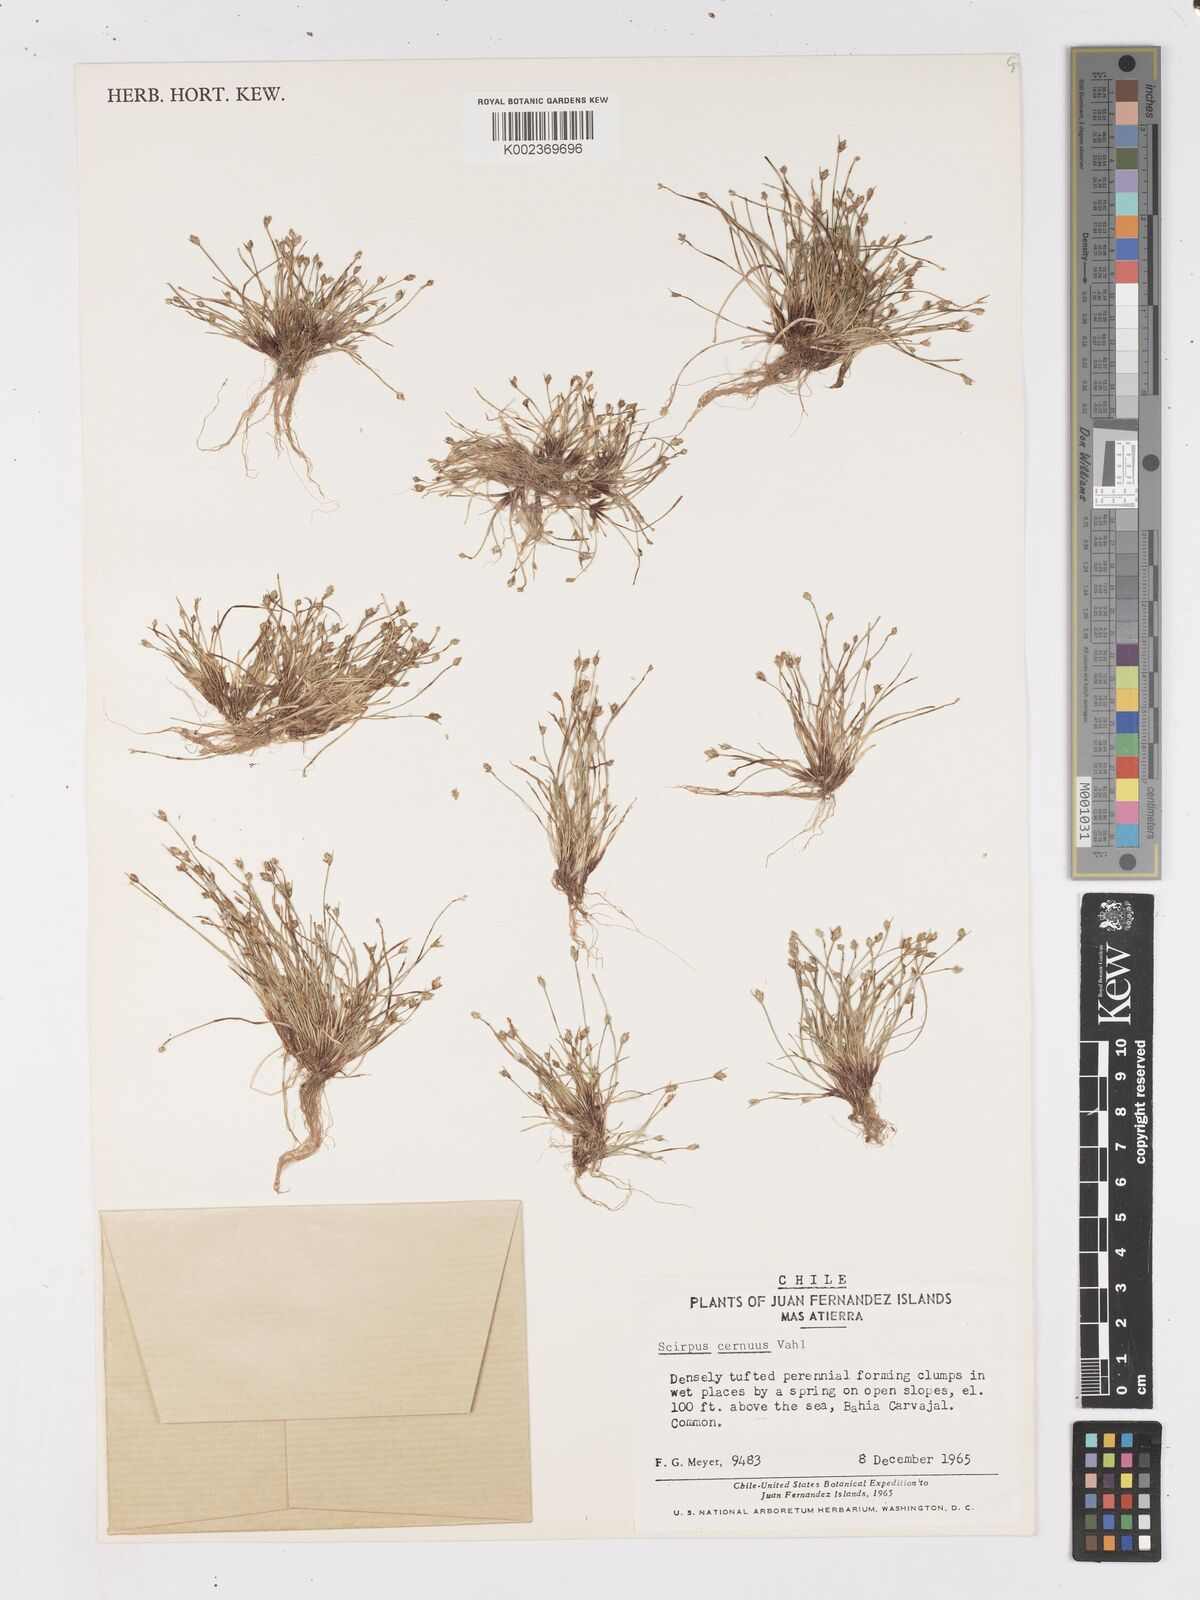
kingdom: Plantae
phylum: Tracheophyta
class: Liliopsida
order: Poales
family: Cyperaceae
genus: Isolepis
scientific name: Isolepis cernua
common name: Slender club-rush
